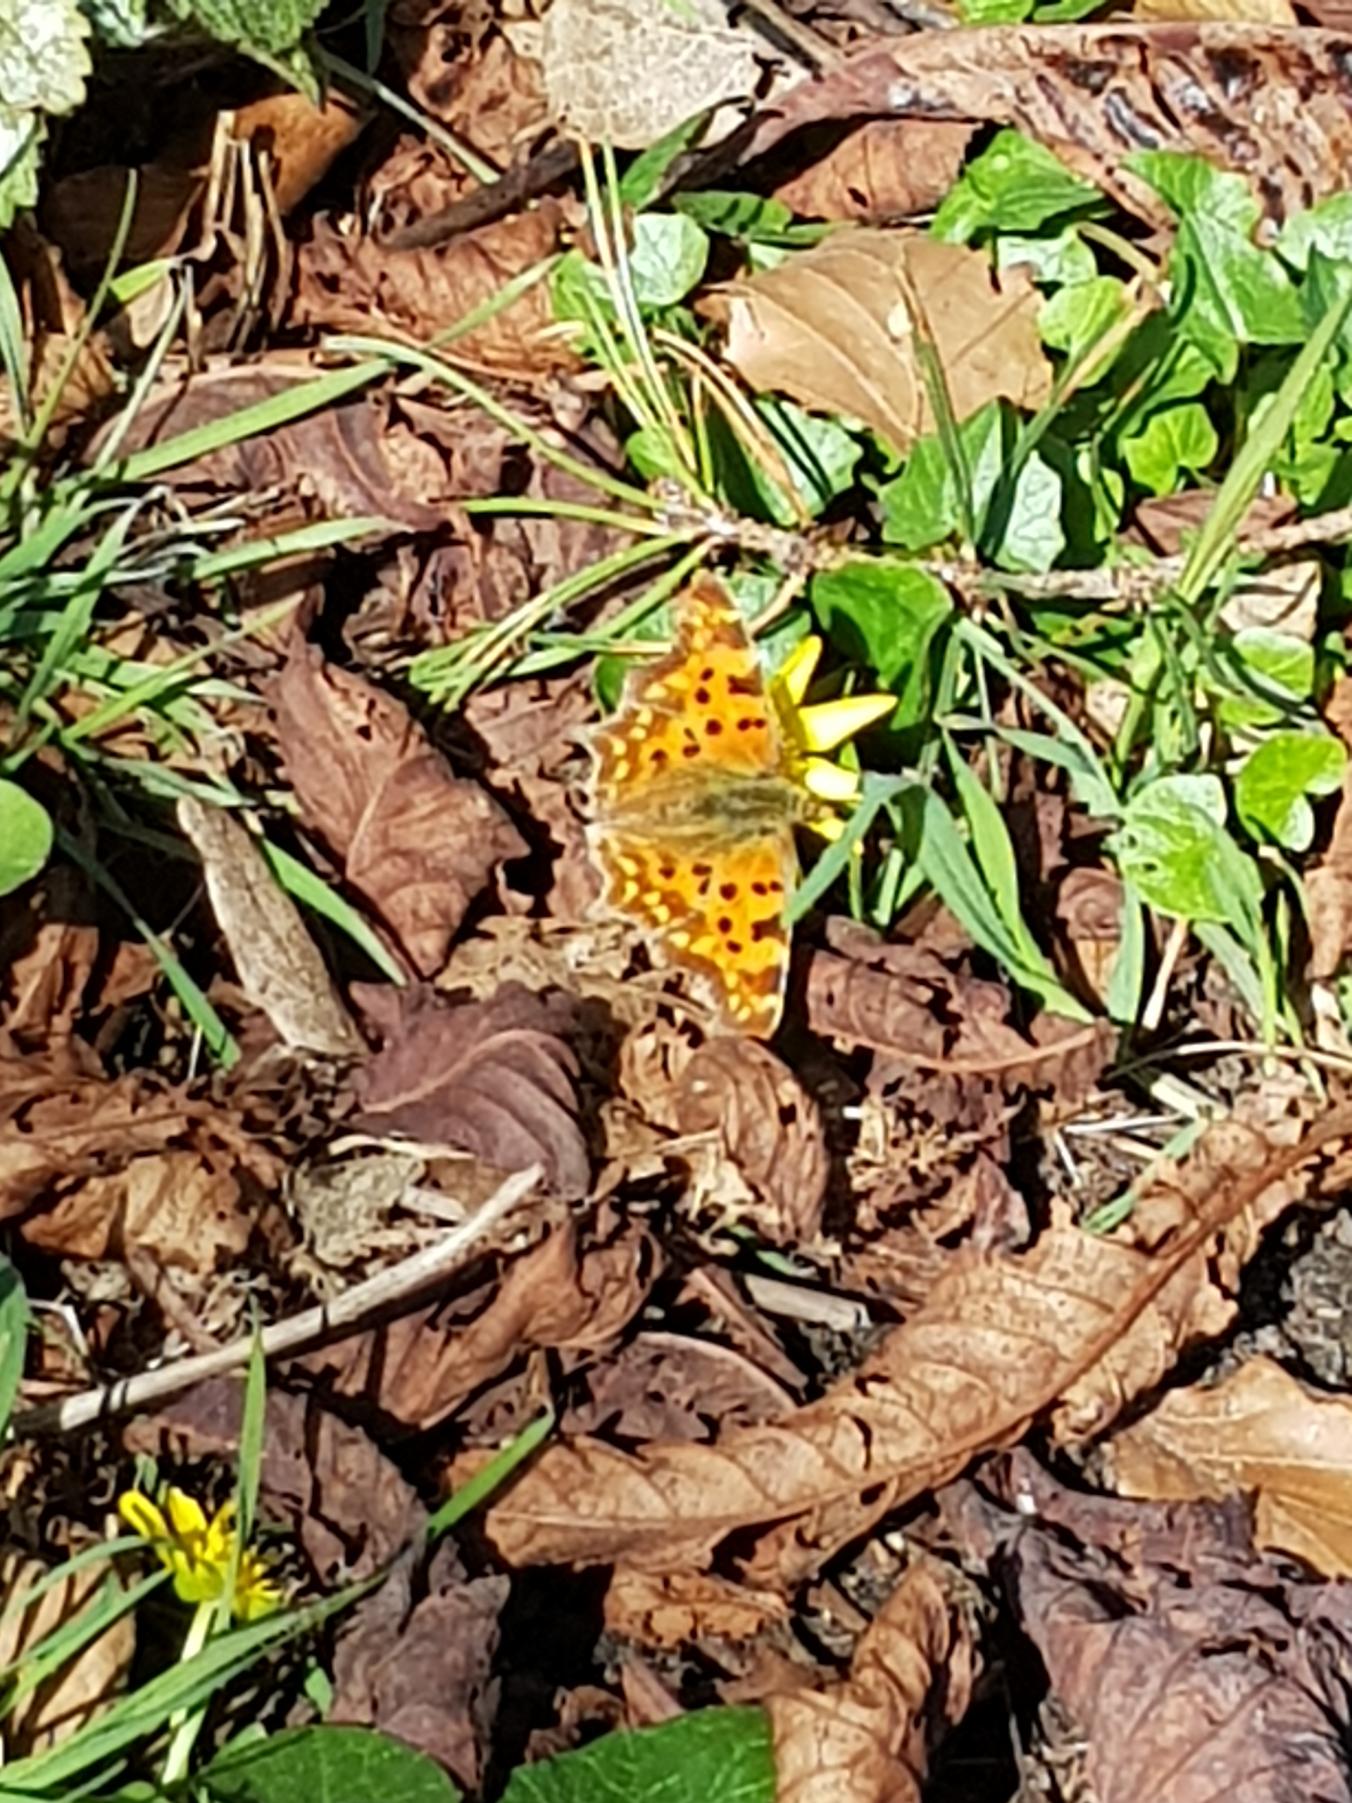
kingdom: Animalia
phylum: Arthropoda
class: Insecta
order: Lepidoptera
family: Nymphalidae
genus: Polygonia
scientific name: Polygonia c-album
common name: Det hvide C
